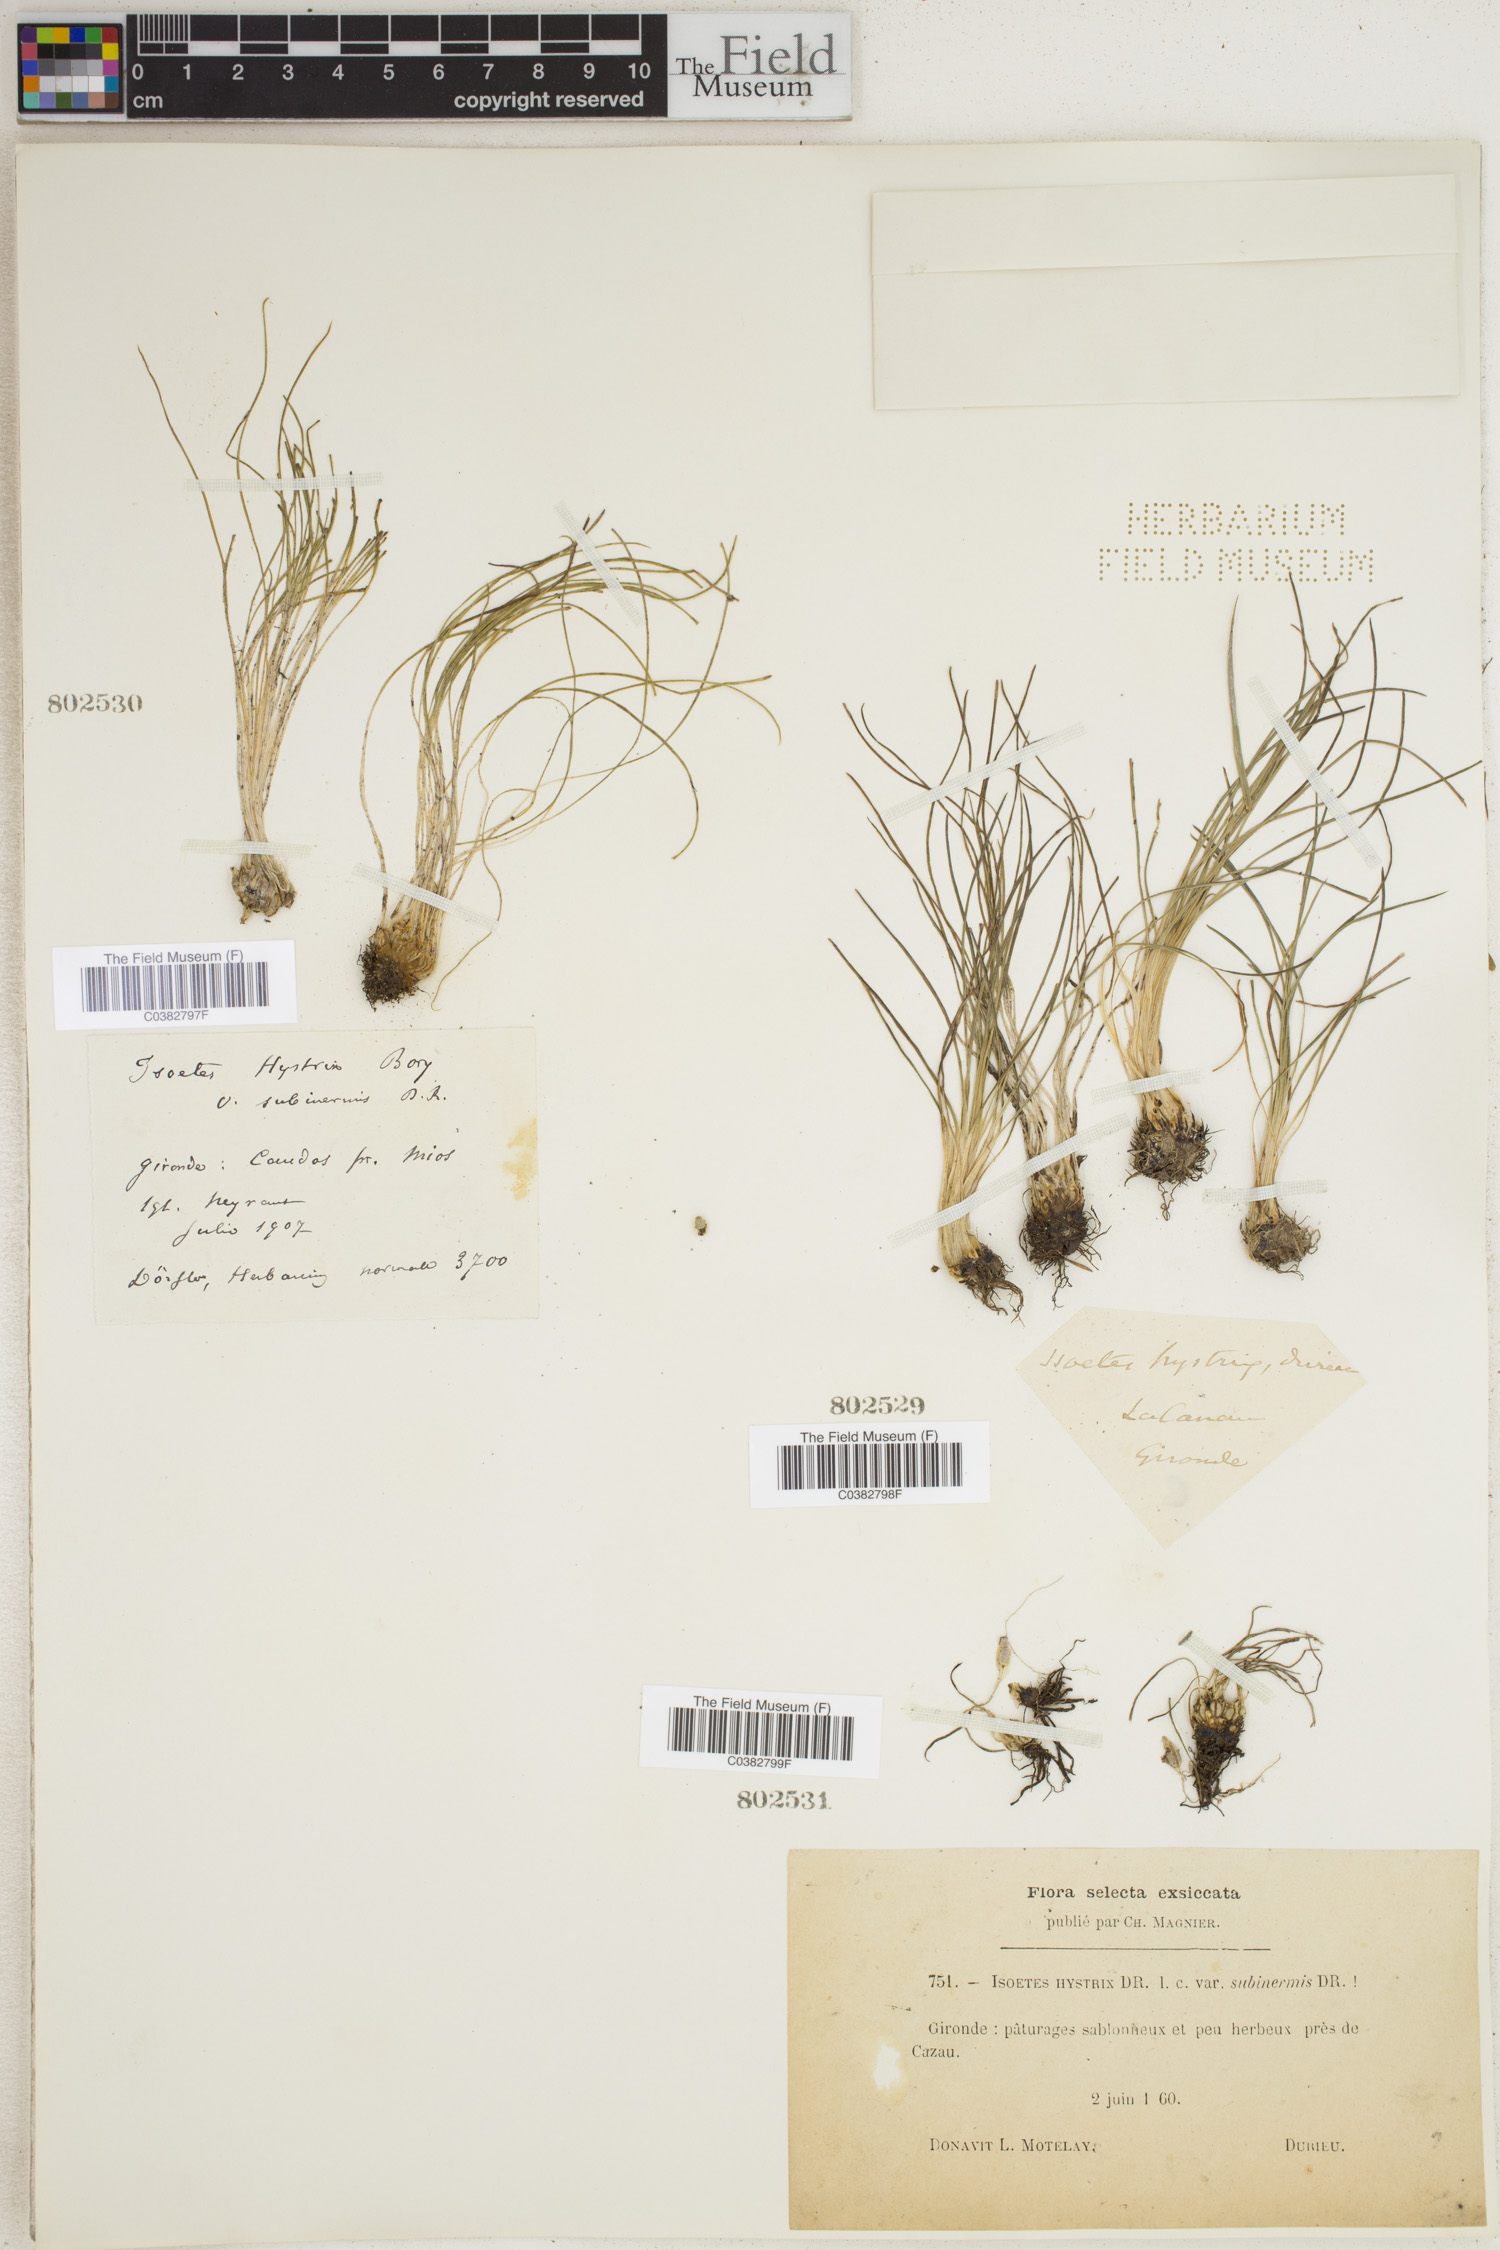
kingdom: Plantae
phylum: Tracheophyta
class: Lycopodiopsida
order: Isoetales
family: Isoetaceae
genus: Isoetes
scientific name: Isoetes histrix
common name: Land quillwort
